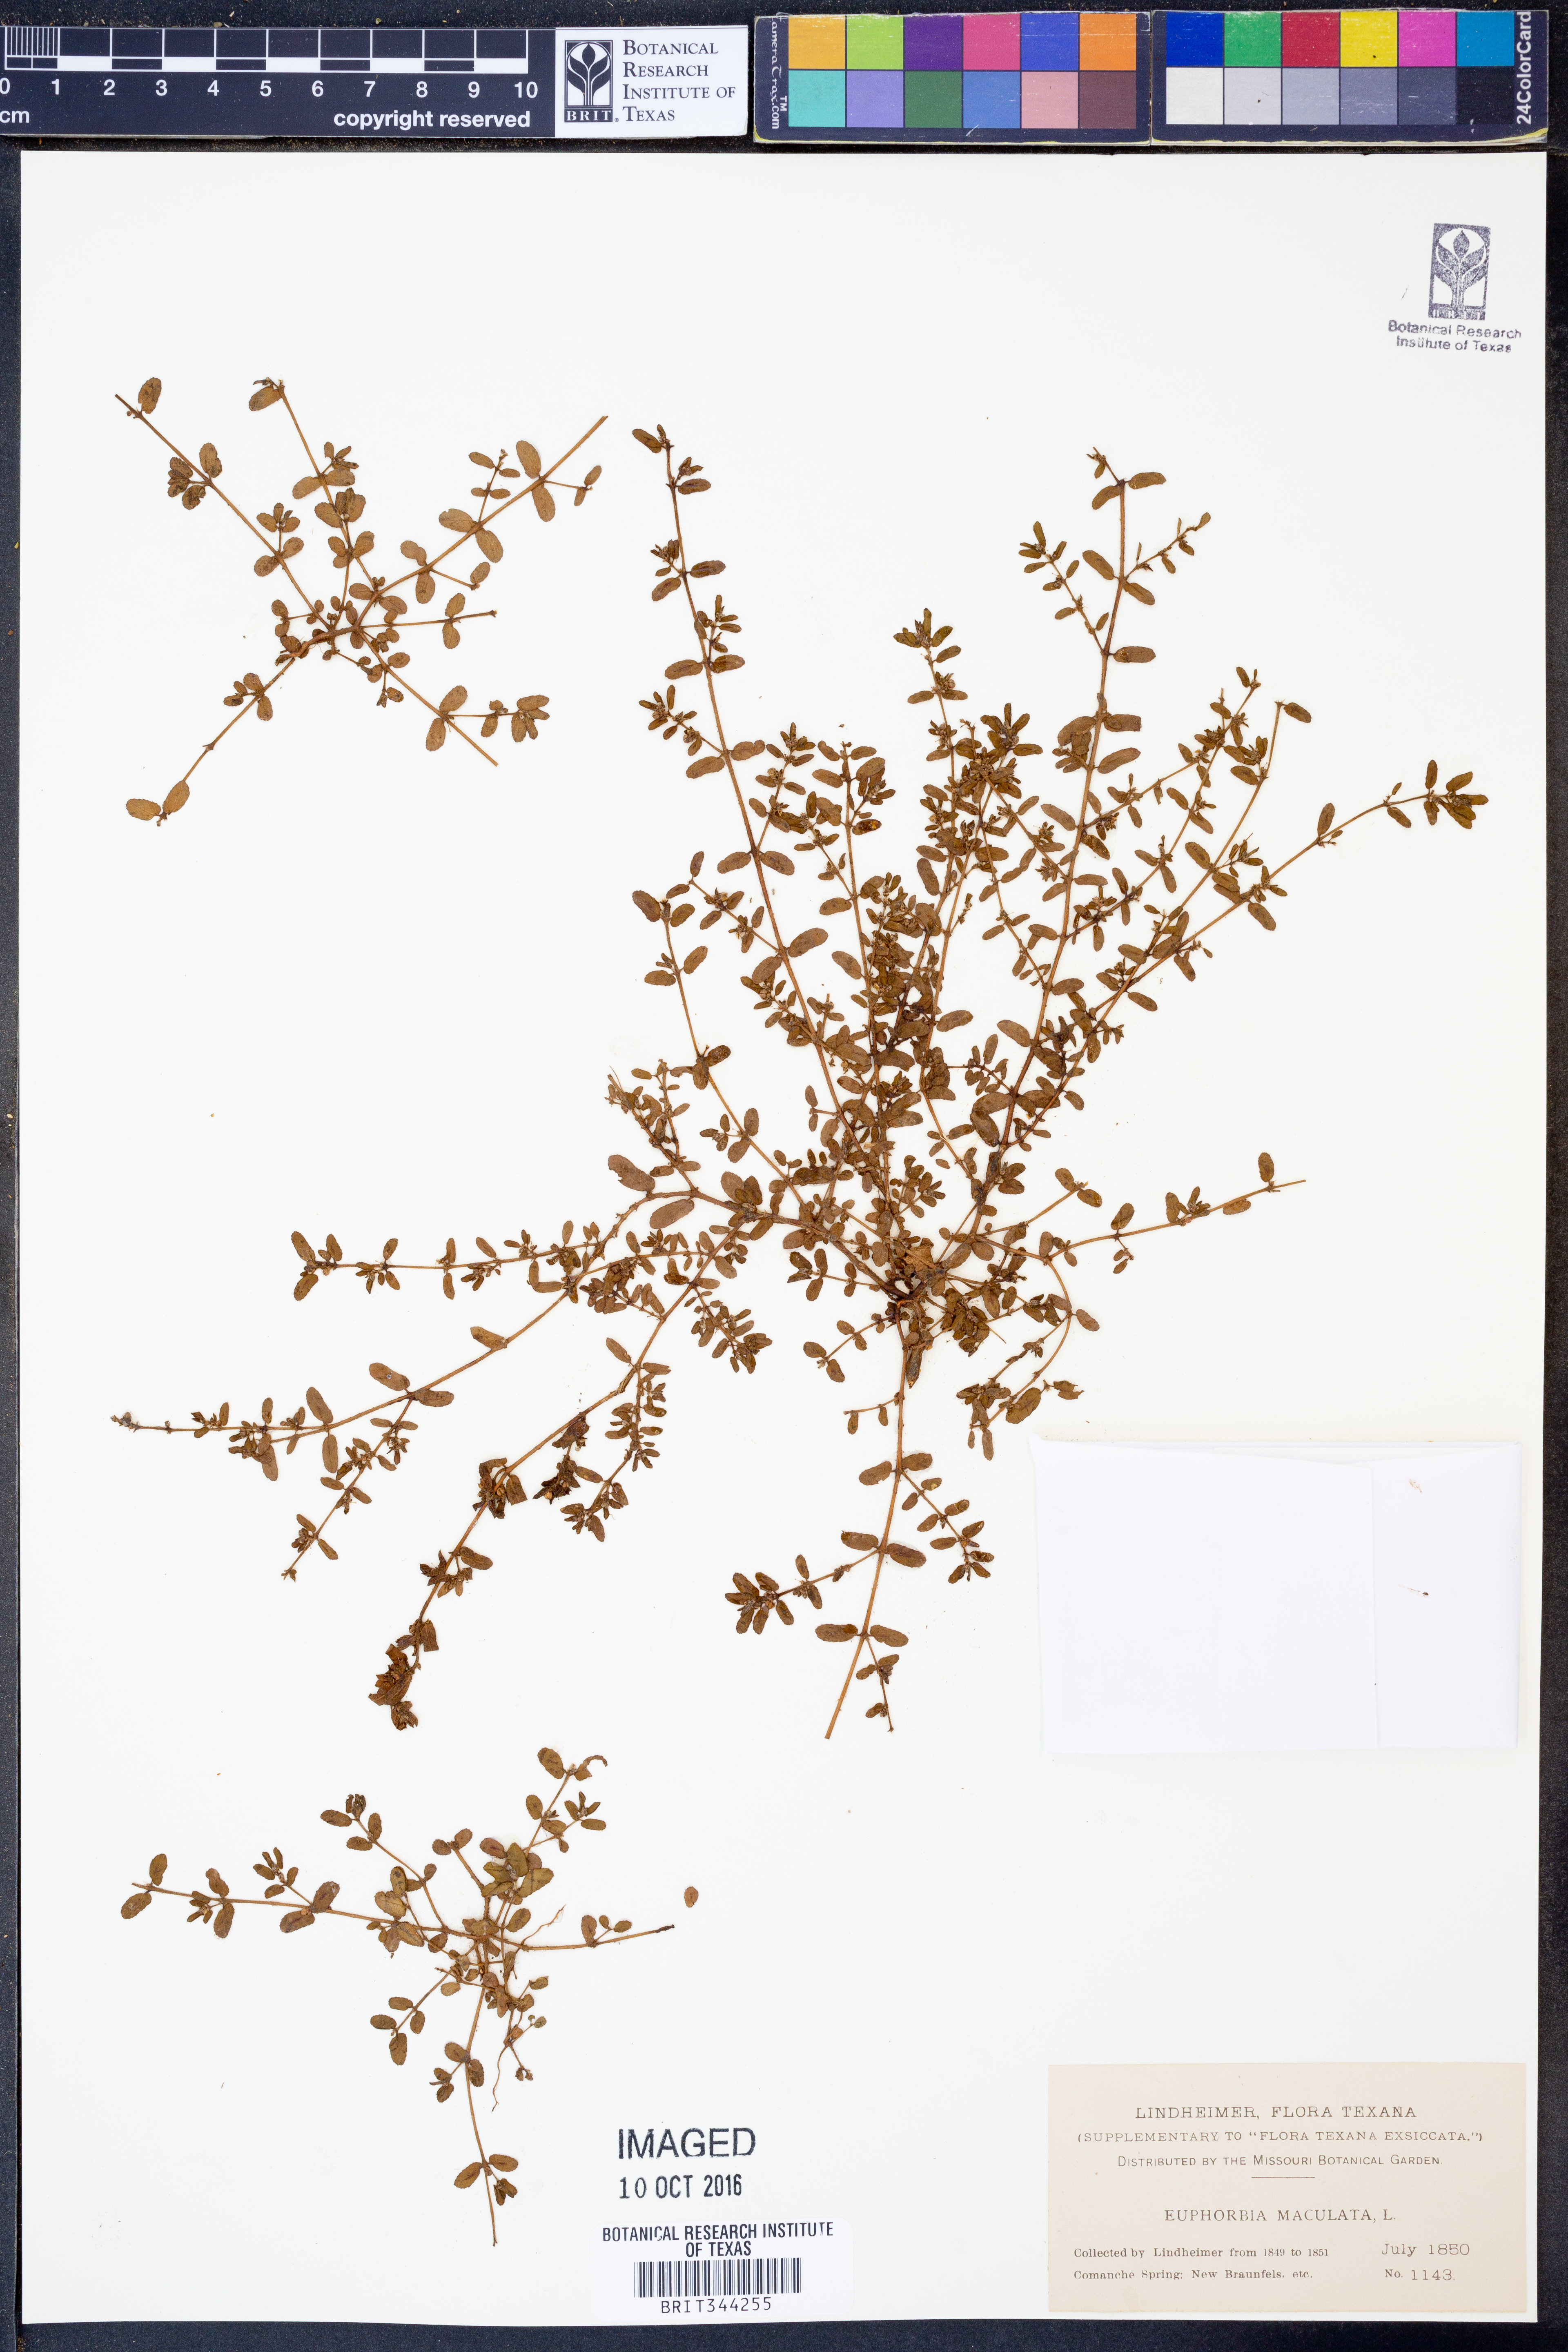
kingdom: Plantae
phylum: Tracheophyta
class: Magnoliopsida
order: Malpighiales
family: Euphorbiaceae
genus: Euphorbia
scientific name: Euphorbia maculata
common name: Spotted spurge
